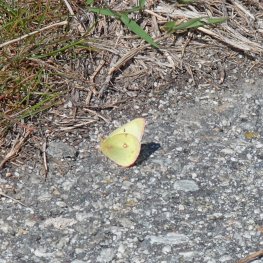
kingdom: Animalia
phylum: Arthropoda
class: Insecta
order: Lepidoptera
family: Pieridae
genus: Colias
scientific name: Colias philodice
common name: Clouded Sulphur
